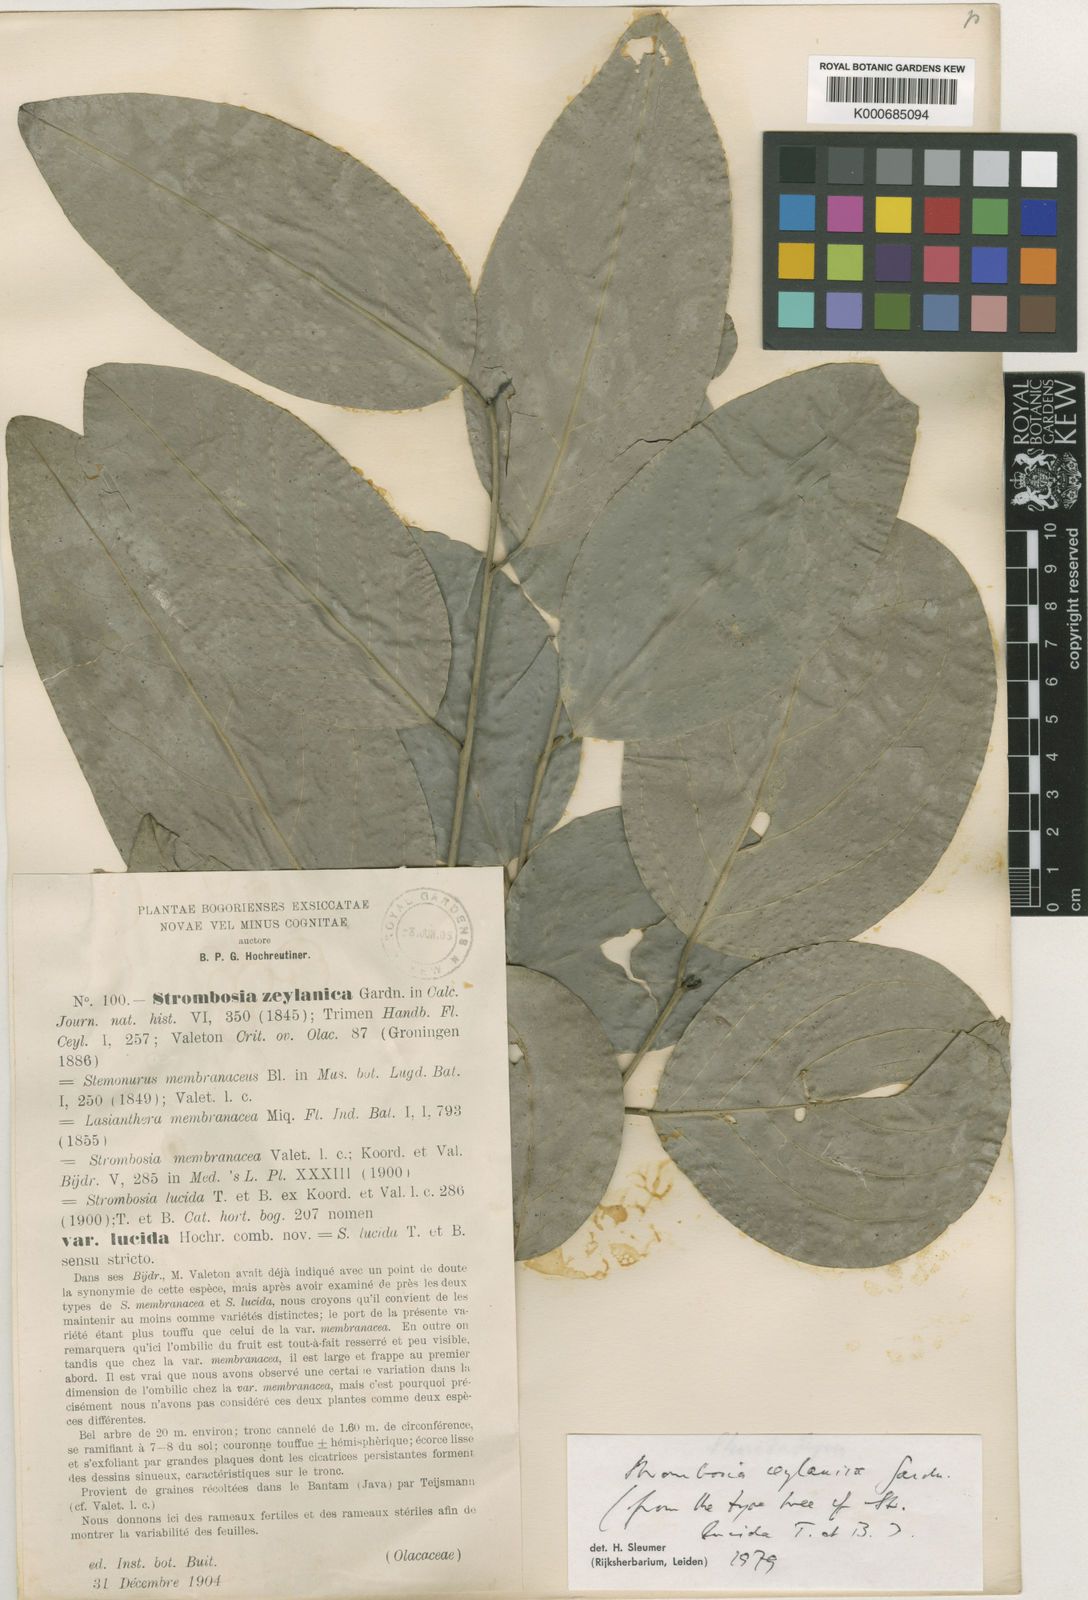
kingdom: Plantae
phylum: Tracheophyta
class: Magnoliopsida
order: Santalales
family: Strombosiaceae
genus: Strombosia
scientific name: Strombosia ceylanica
